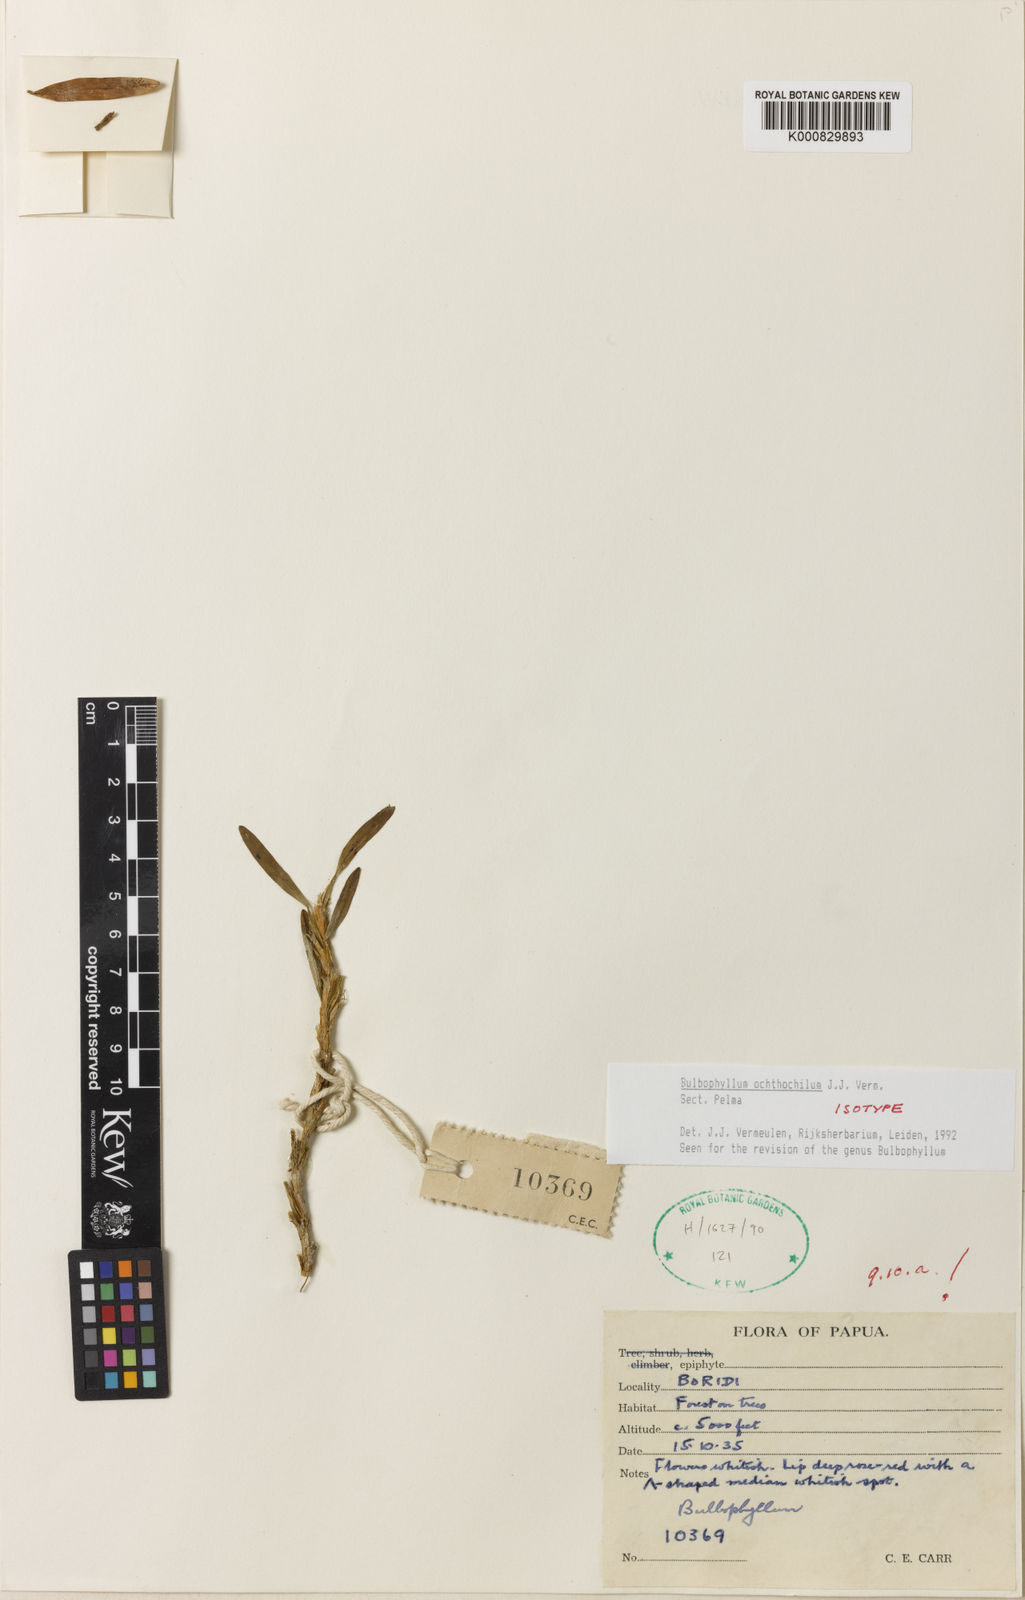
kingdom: Plantae
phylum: Tracheophyta
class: Liliopsida
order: Asparagales
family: Orchidaceae
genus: Bulbophyllum
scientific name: Bulbophyllum
